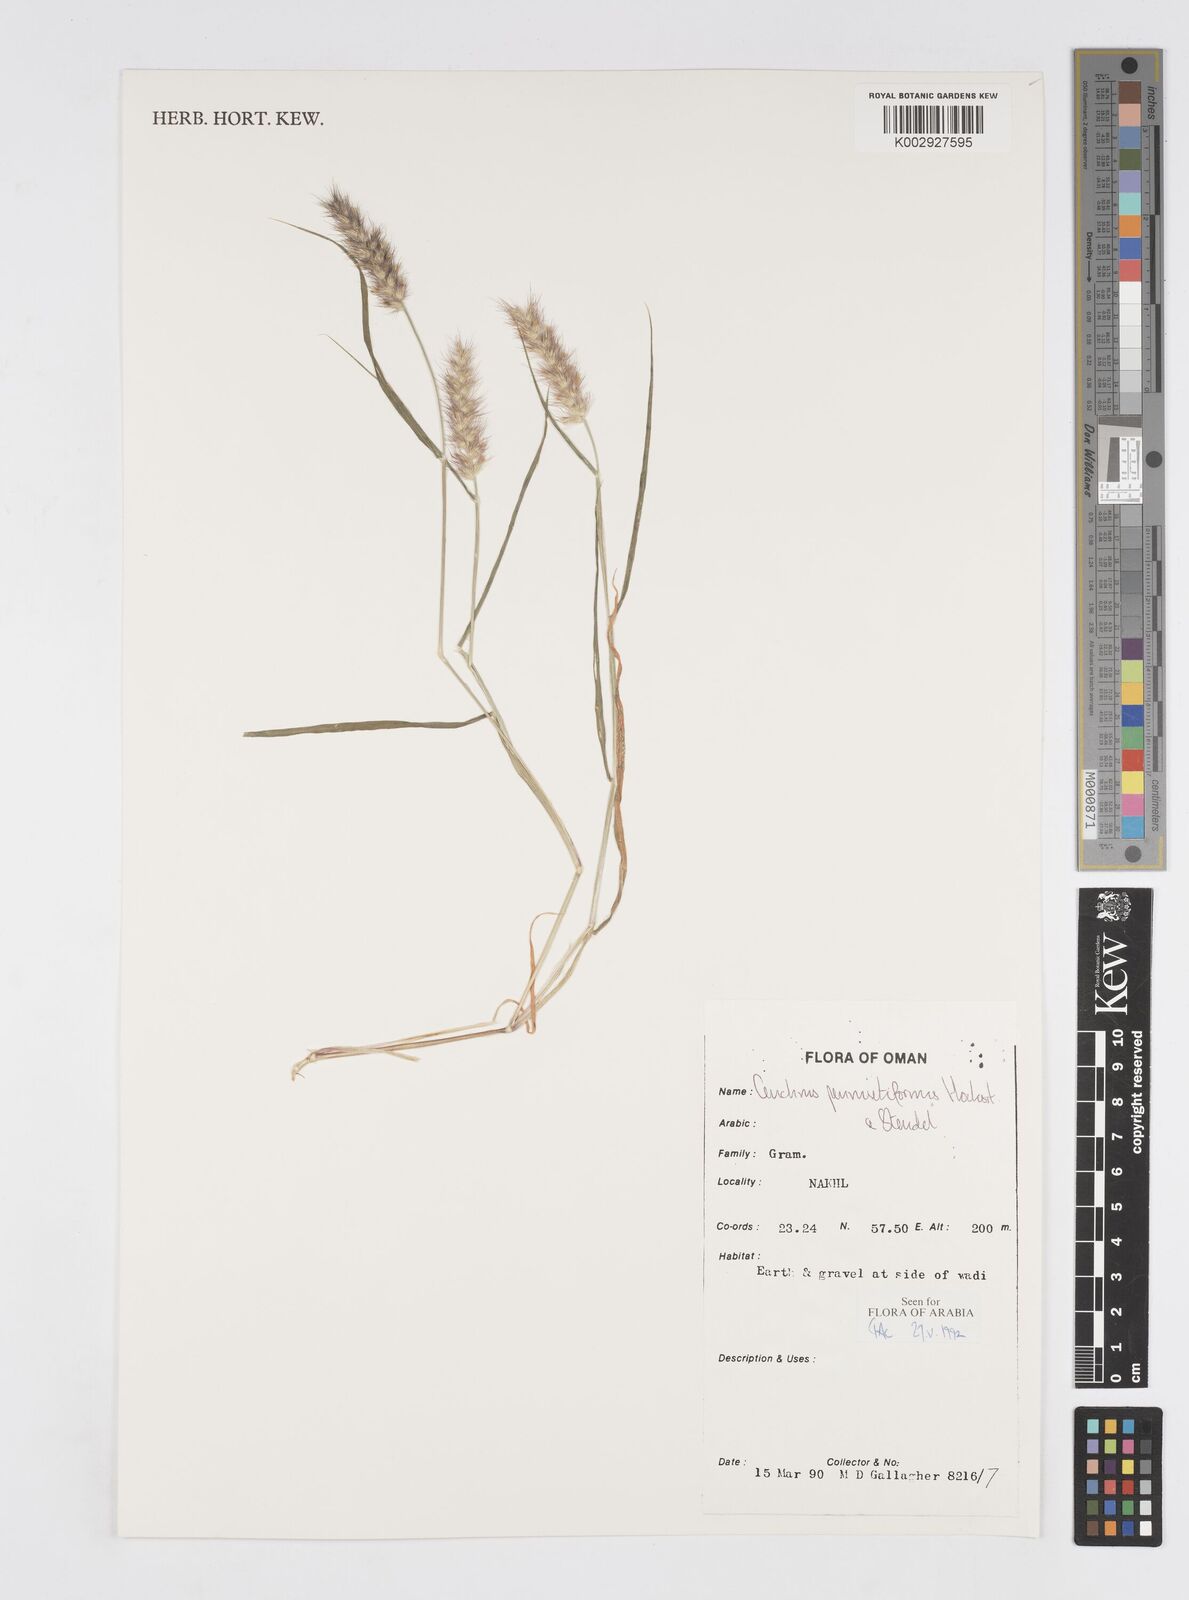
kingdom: Plantae
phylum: Tracheophyta
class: Liliopsida
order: Poales
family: Poaceae
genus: Cenchrus
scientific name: Cenchrus pennisetiformis
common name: Cloncurry
